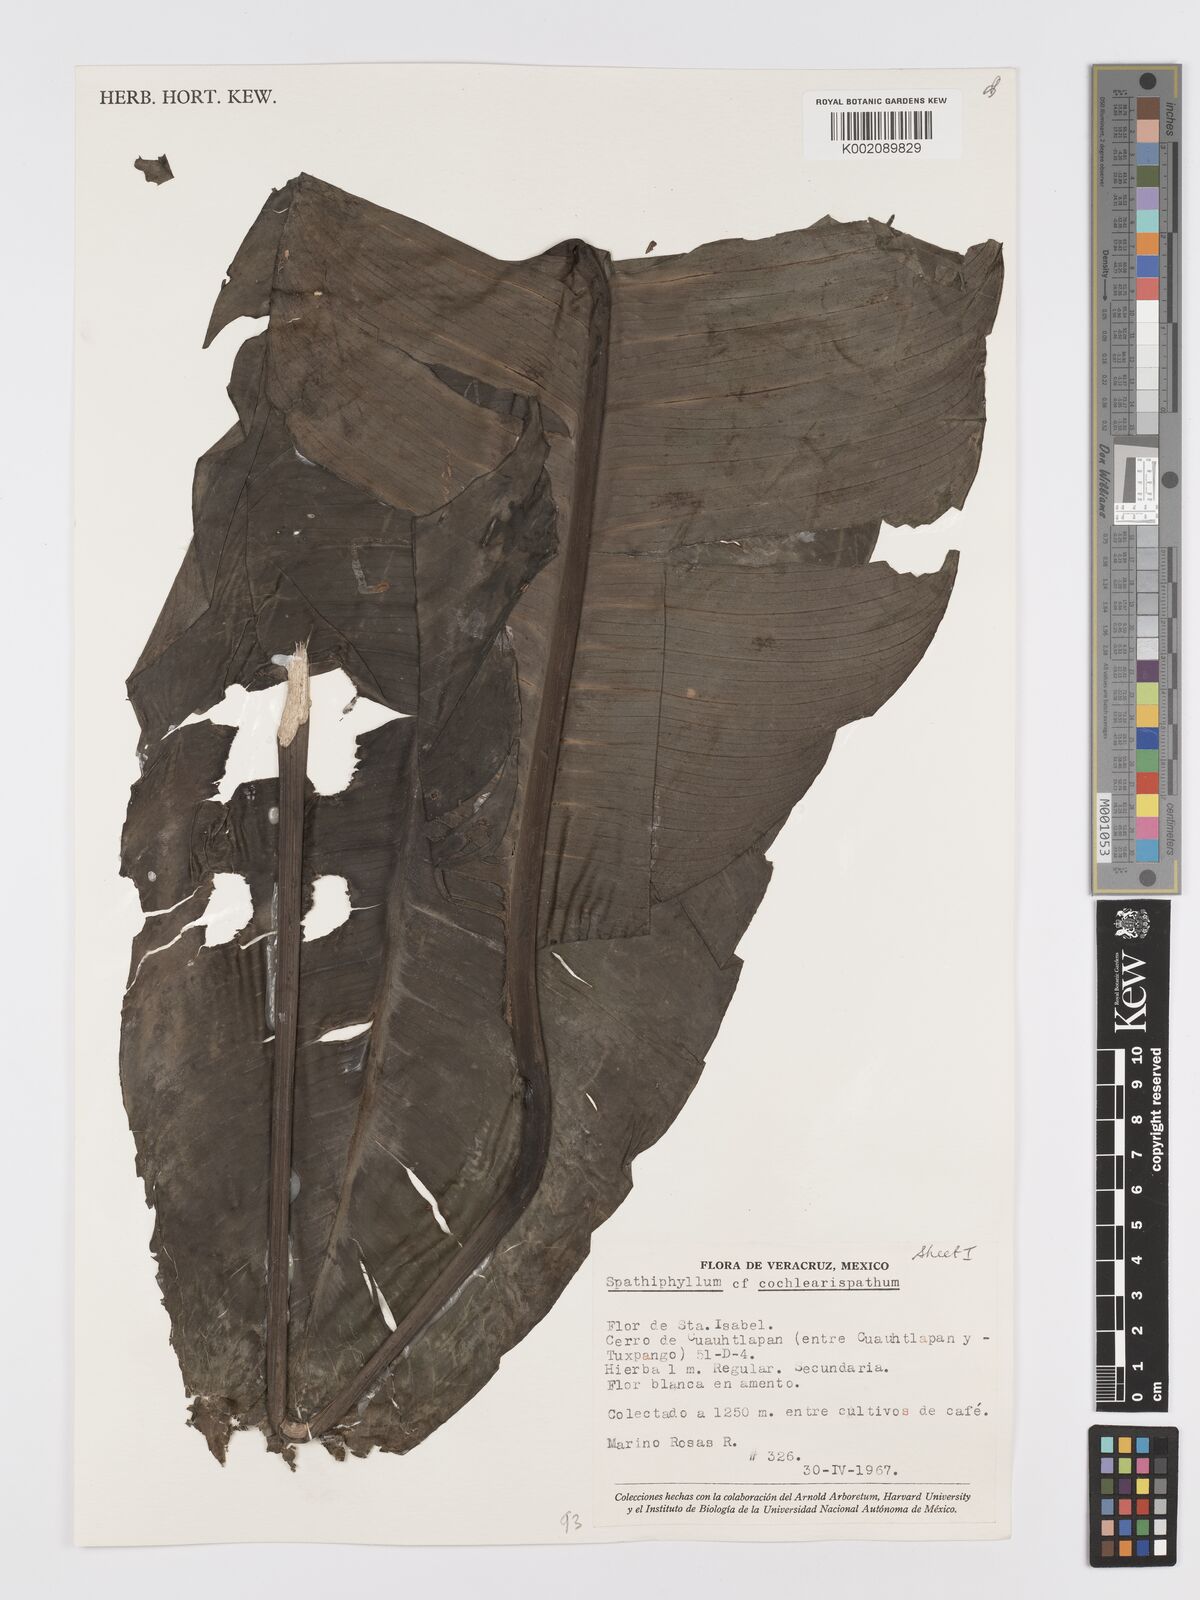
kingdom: Plantae
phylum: Tracheophyta
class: Liliopsida
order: Alismatales
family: Araceae
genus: Spathiphyllum
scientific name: Spathiphyllum cochlearispathum
